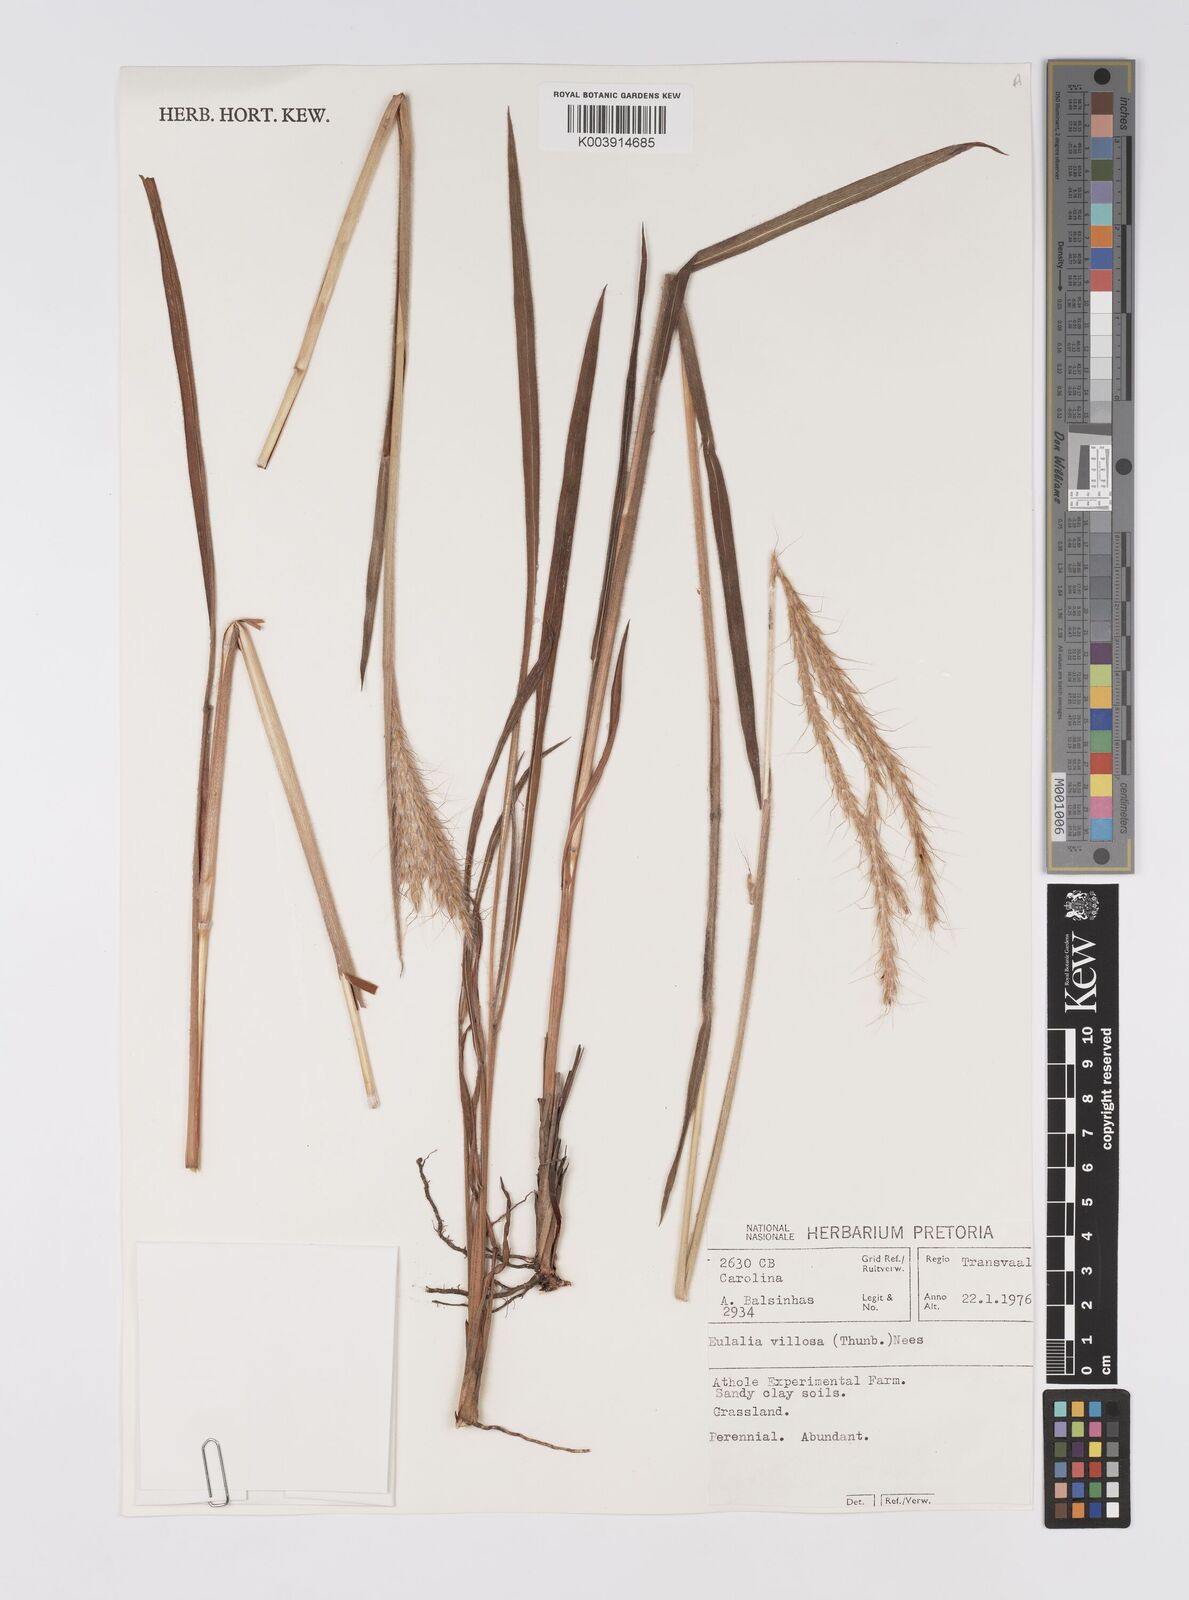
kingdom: Plantae
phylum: Tracheophyta
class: Liliopsida
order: Poales
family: Poaceae
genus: Eulalia
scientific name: Eulalia villosa
